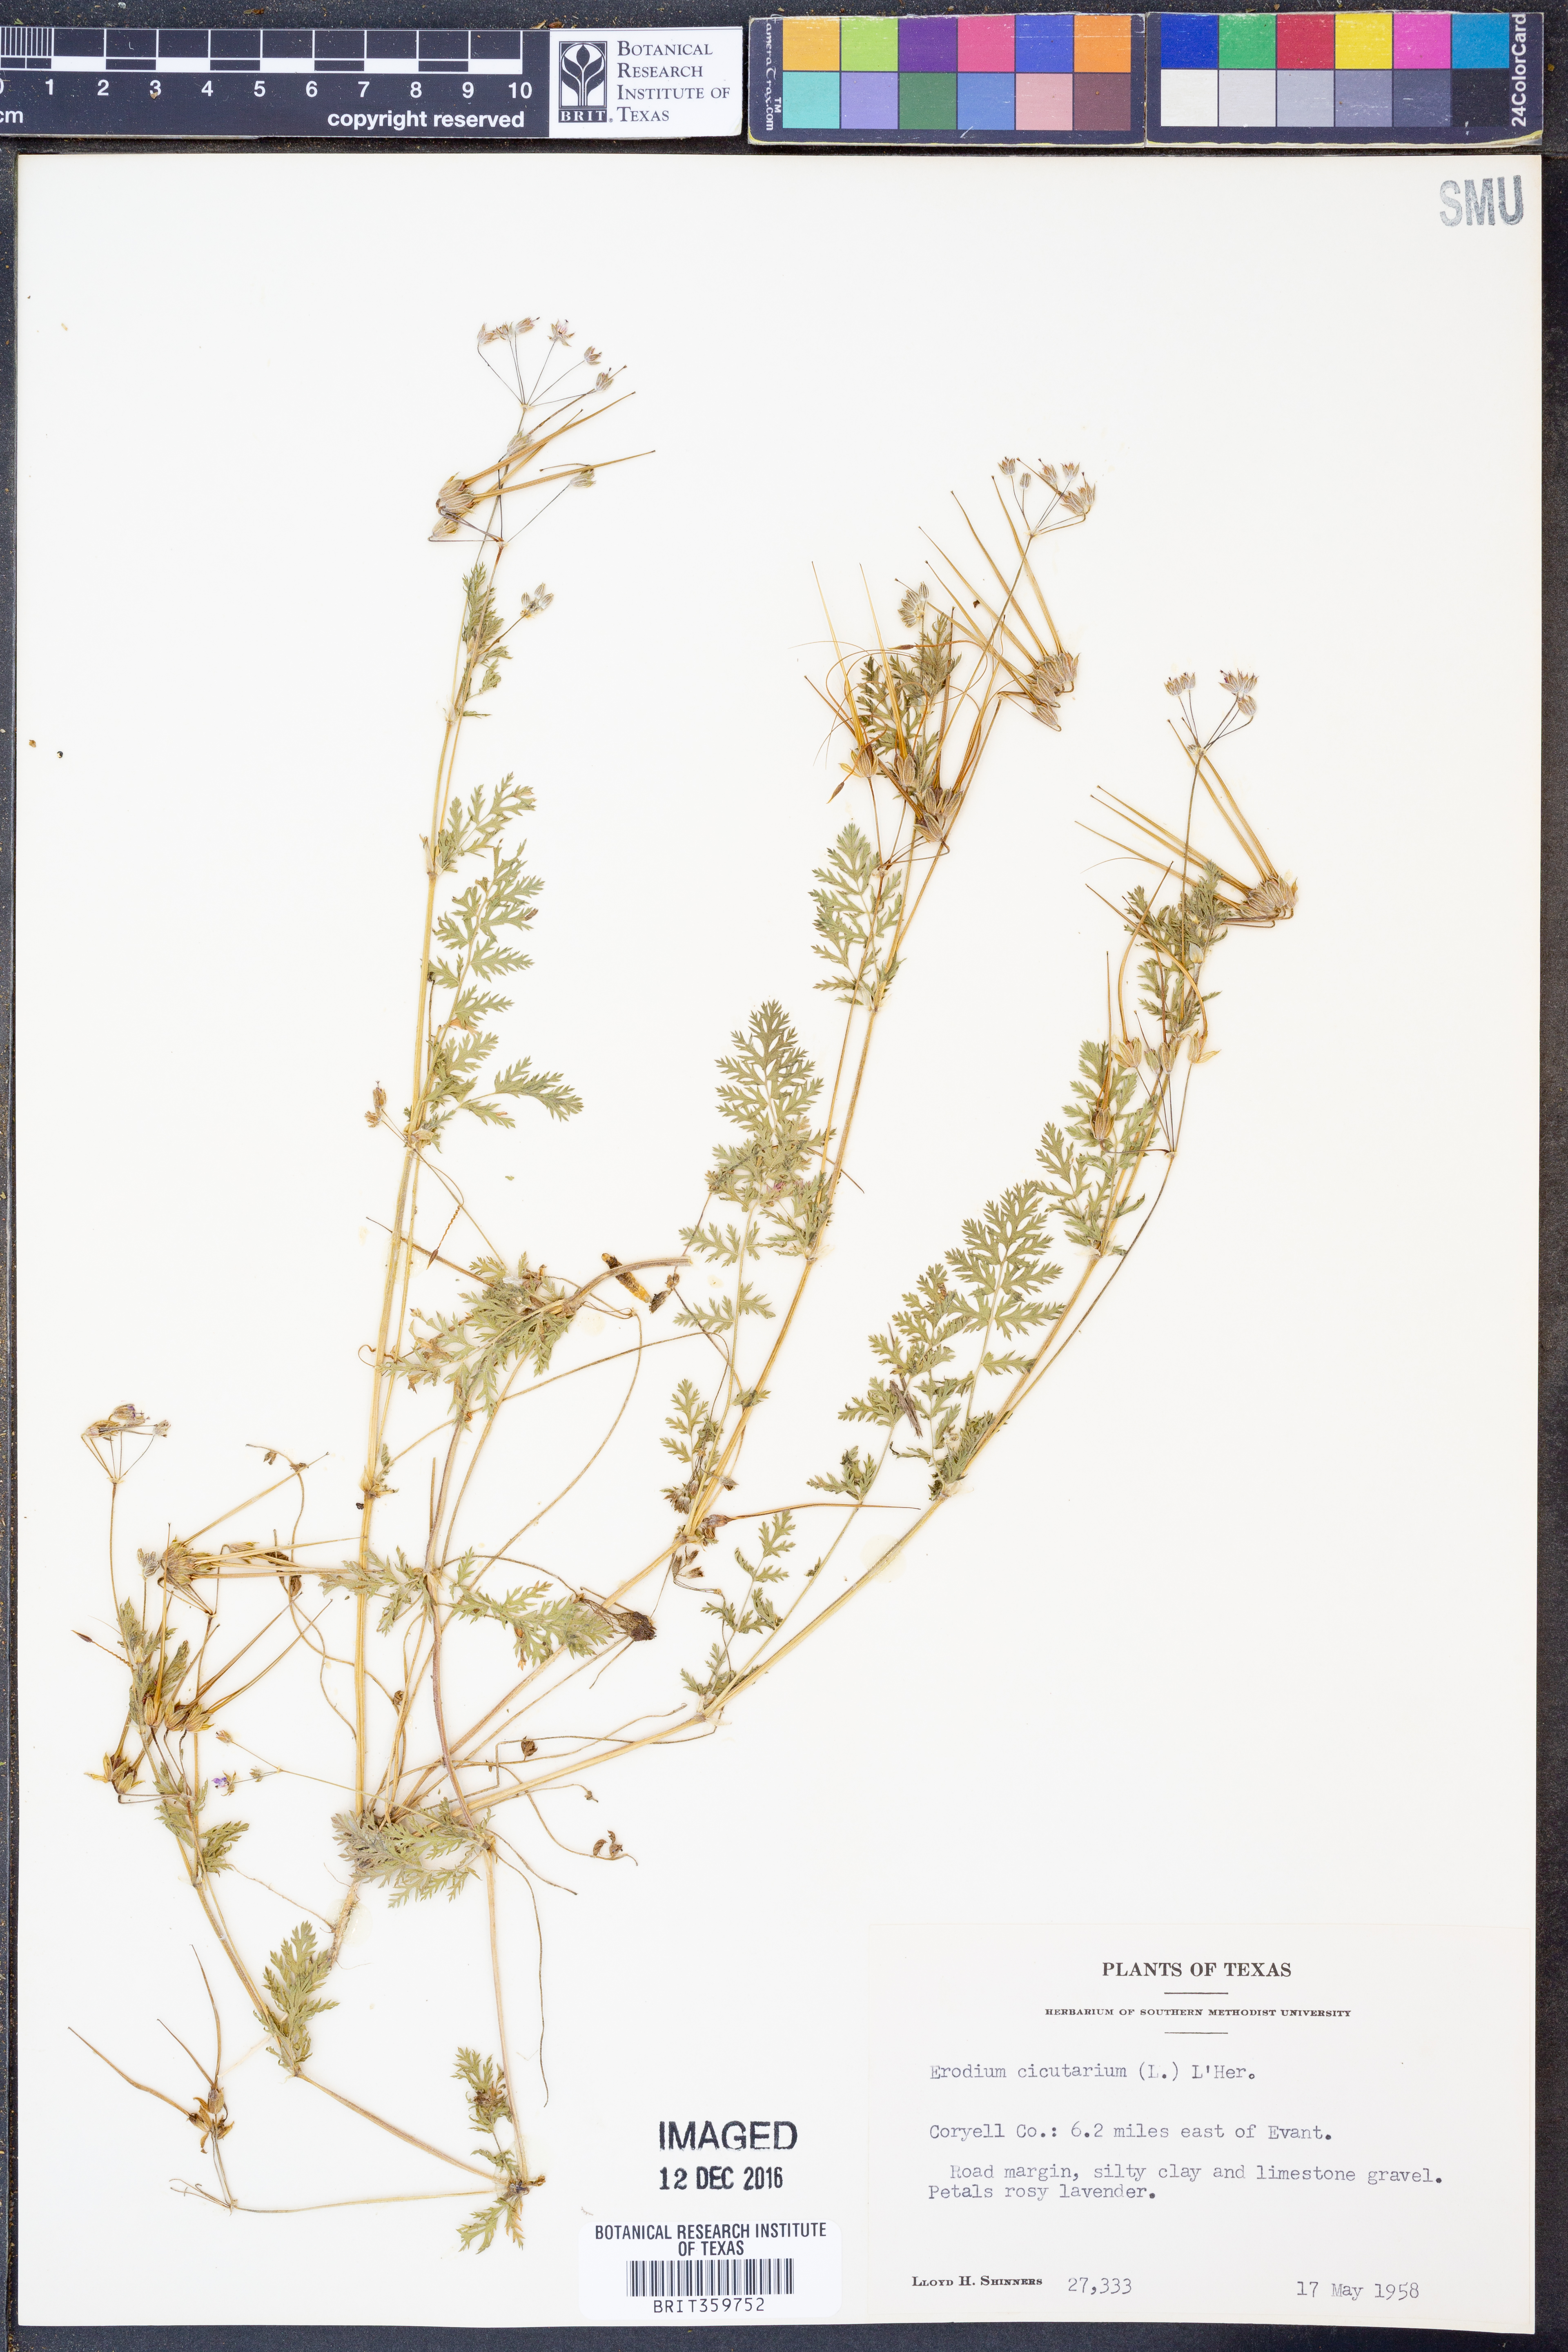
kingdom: Plantae
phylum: Tracheophyta
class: Magnoliopsida
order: Geraniales
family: Geraniaceae
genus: Erodium
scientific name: Erodium cicutarium
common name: Common stork's-bill
